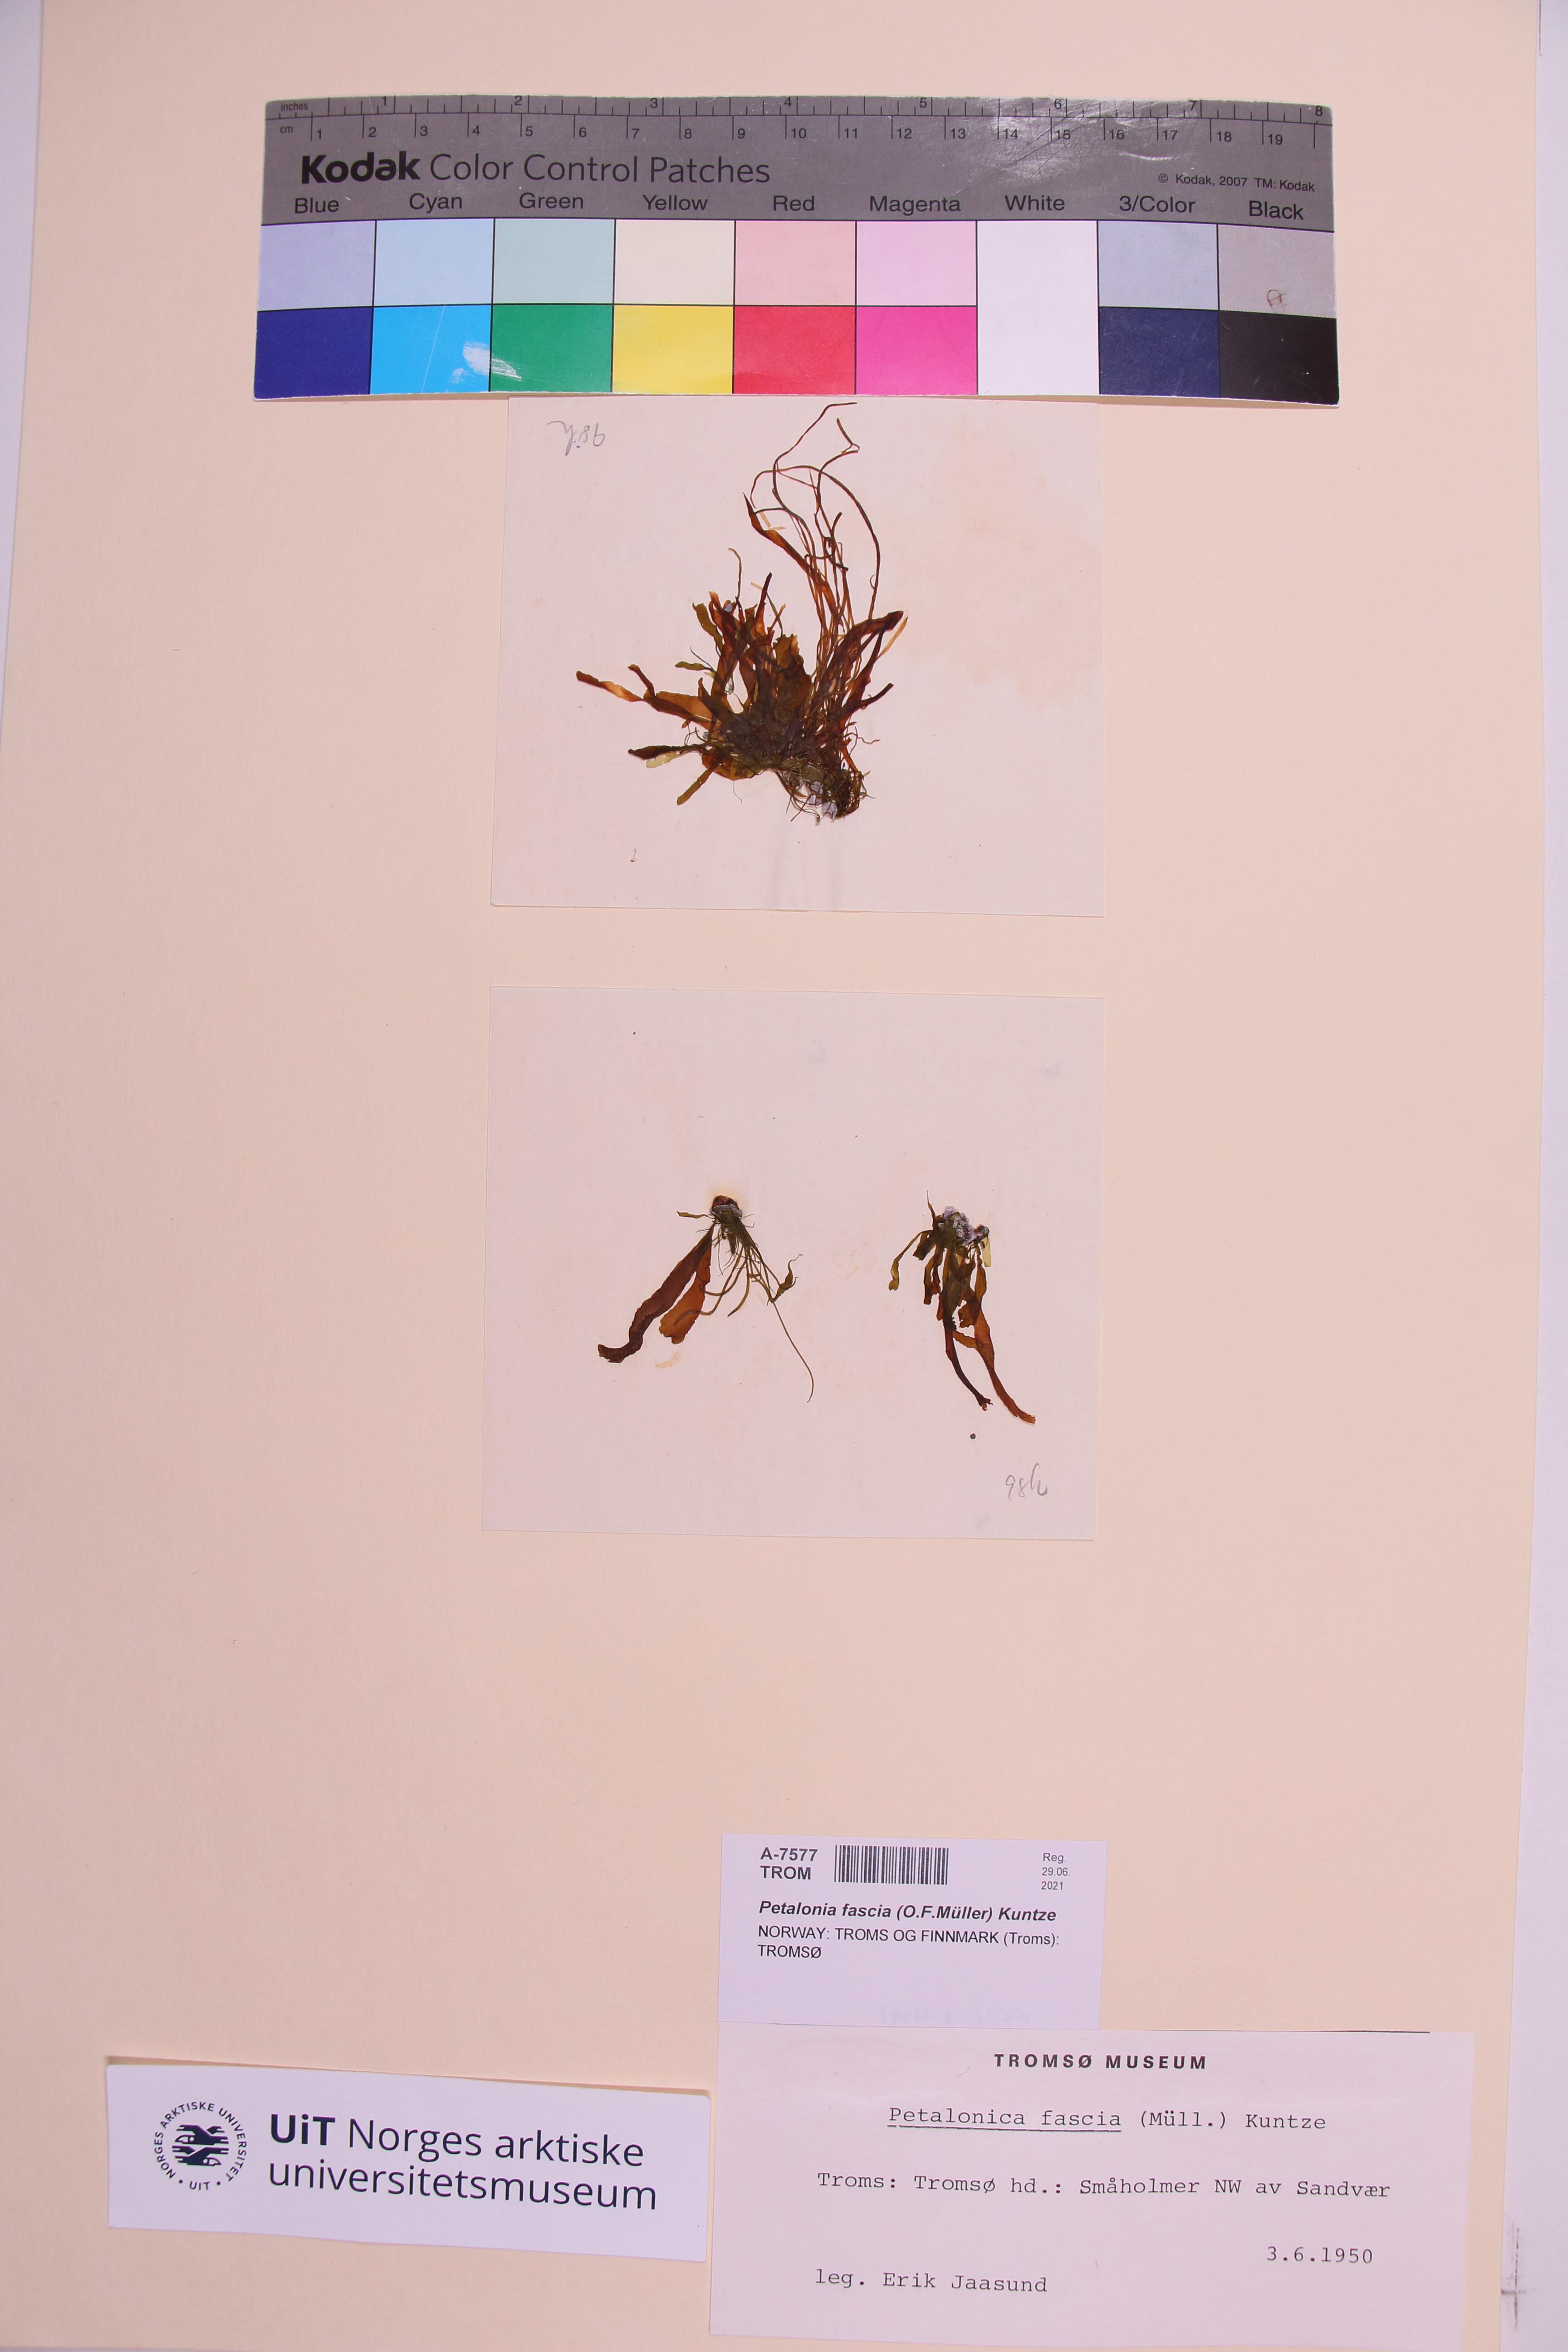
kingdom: Chromista
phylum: Ochrophyta
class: Phaeophyceae
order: Scytosiphonales
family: Scytosiphonaceae
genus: Petalonia
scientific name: Petalonia fascia
